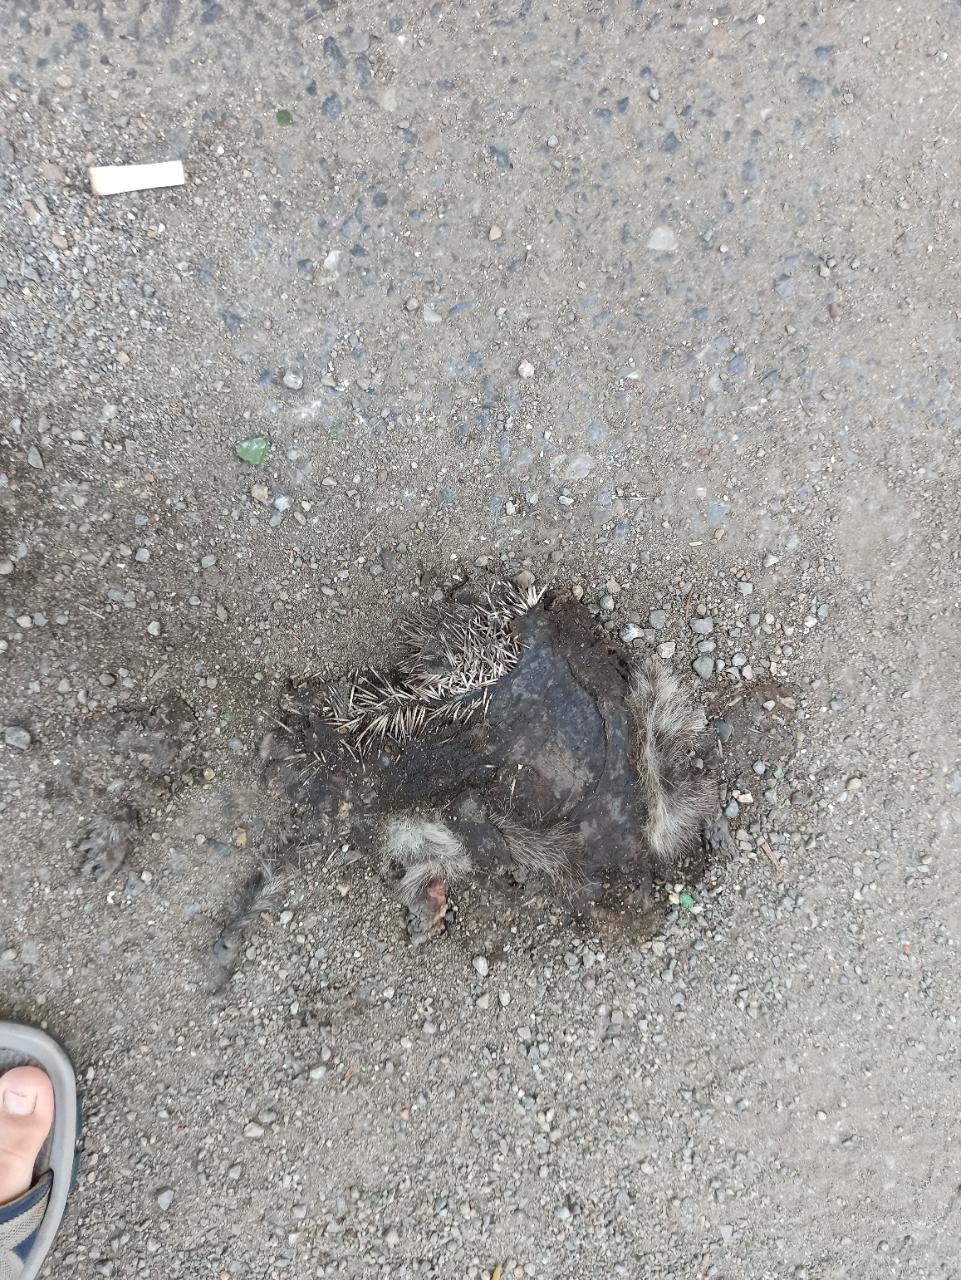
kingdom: Animalia
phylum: Chordata
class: Mammalia
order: Erinaceomorpha
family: Erinaceidae
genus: Erinaceus
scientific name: Erinaceus
